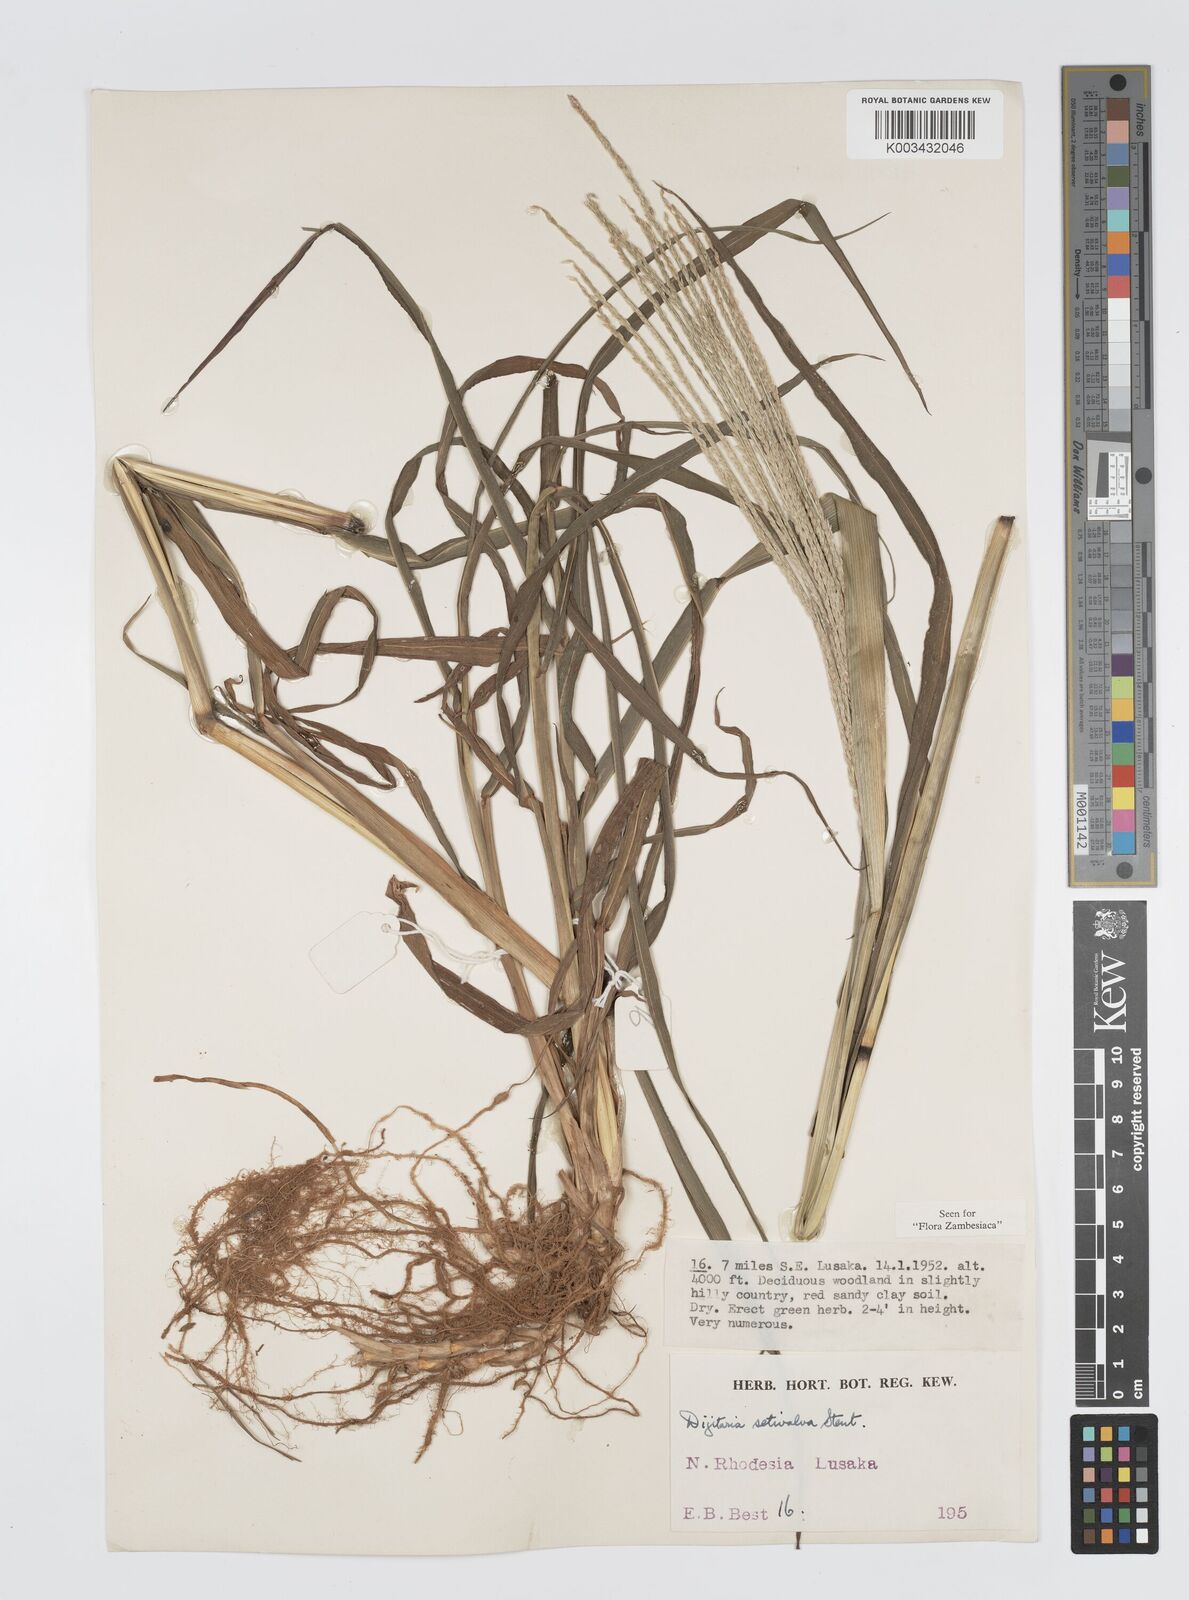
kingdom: Plantae
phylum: Tracheophyta
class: Liliopsida
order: Poales
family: Poaceae
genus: Digitaria
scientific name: Digitaria milanjiana
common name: Madagascar crabgrass
